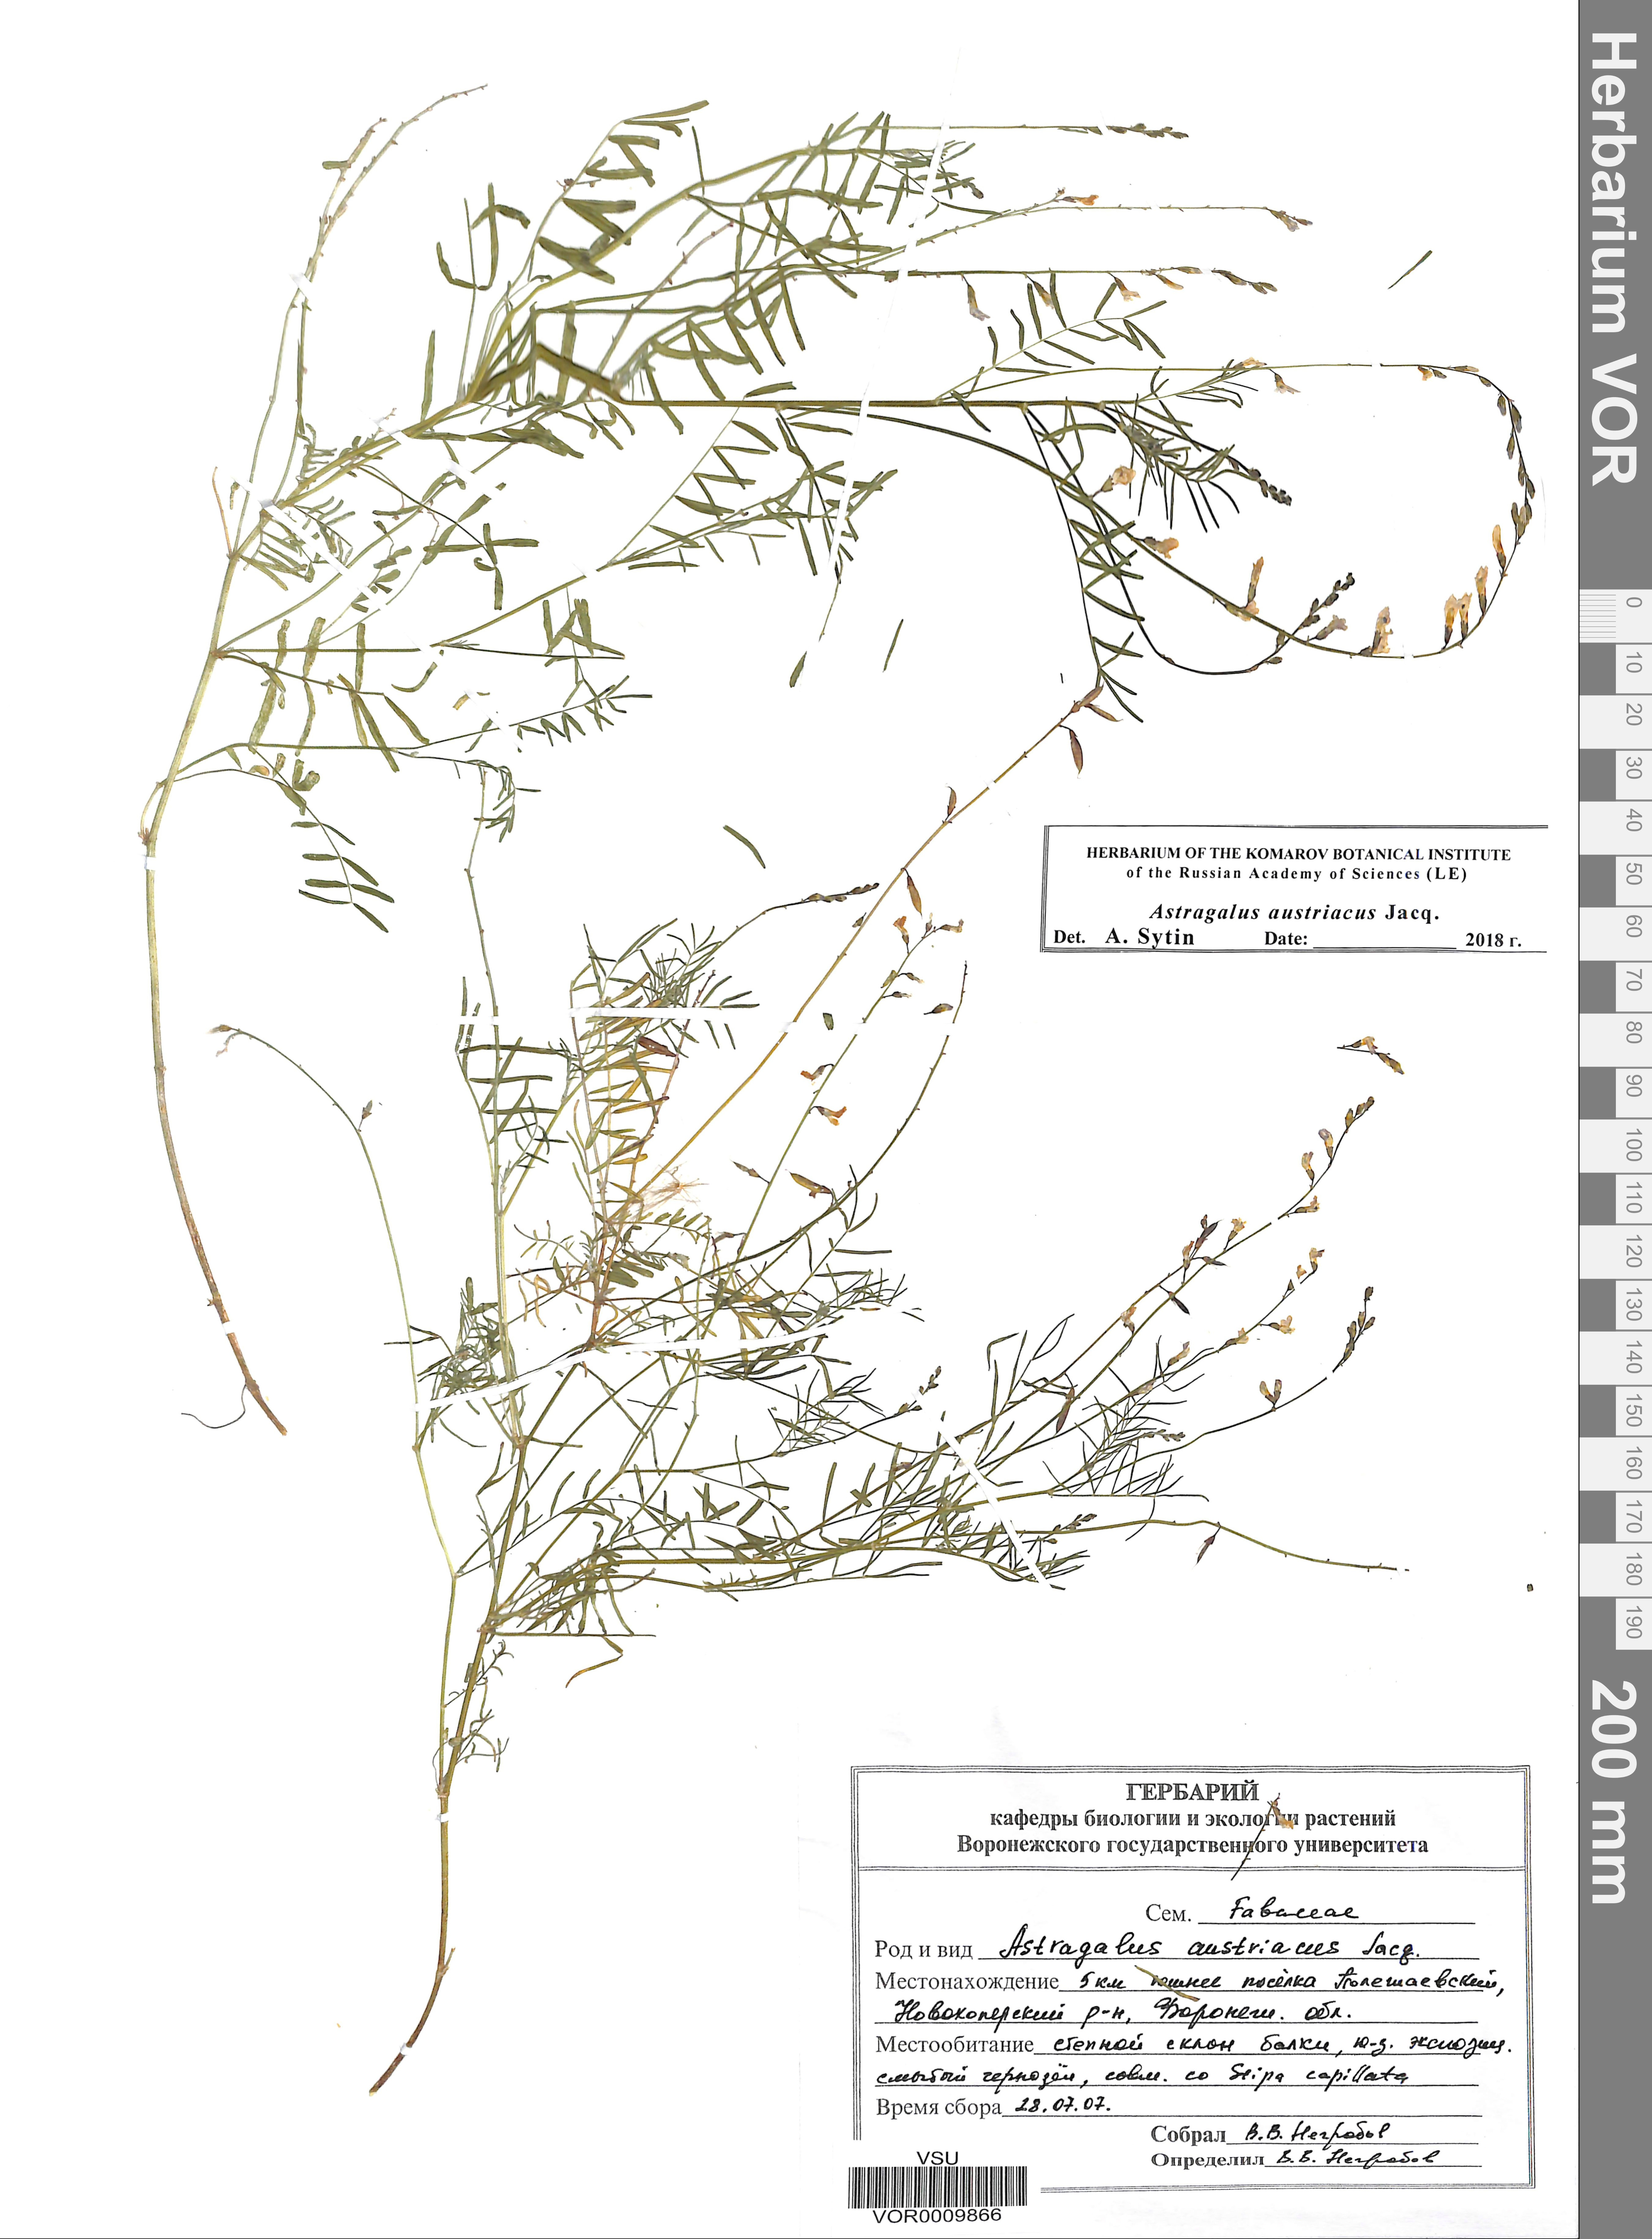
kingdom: Plantae
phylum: Tracheophyta
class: Magnoliopsida
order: Fabales
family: Fabaceae
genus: Astragalus
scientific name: Astragalus austriacus
